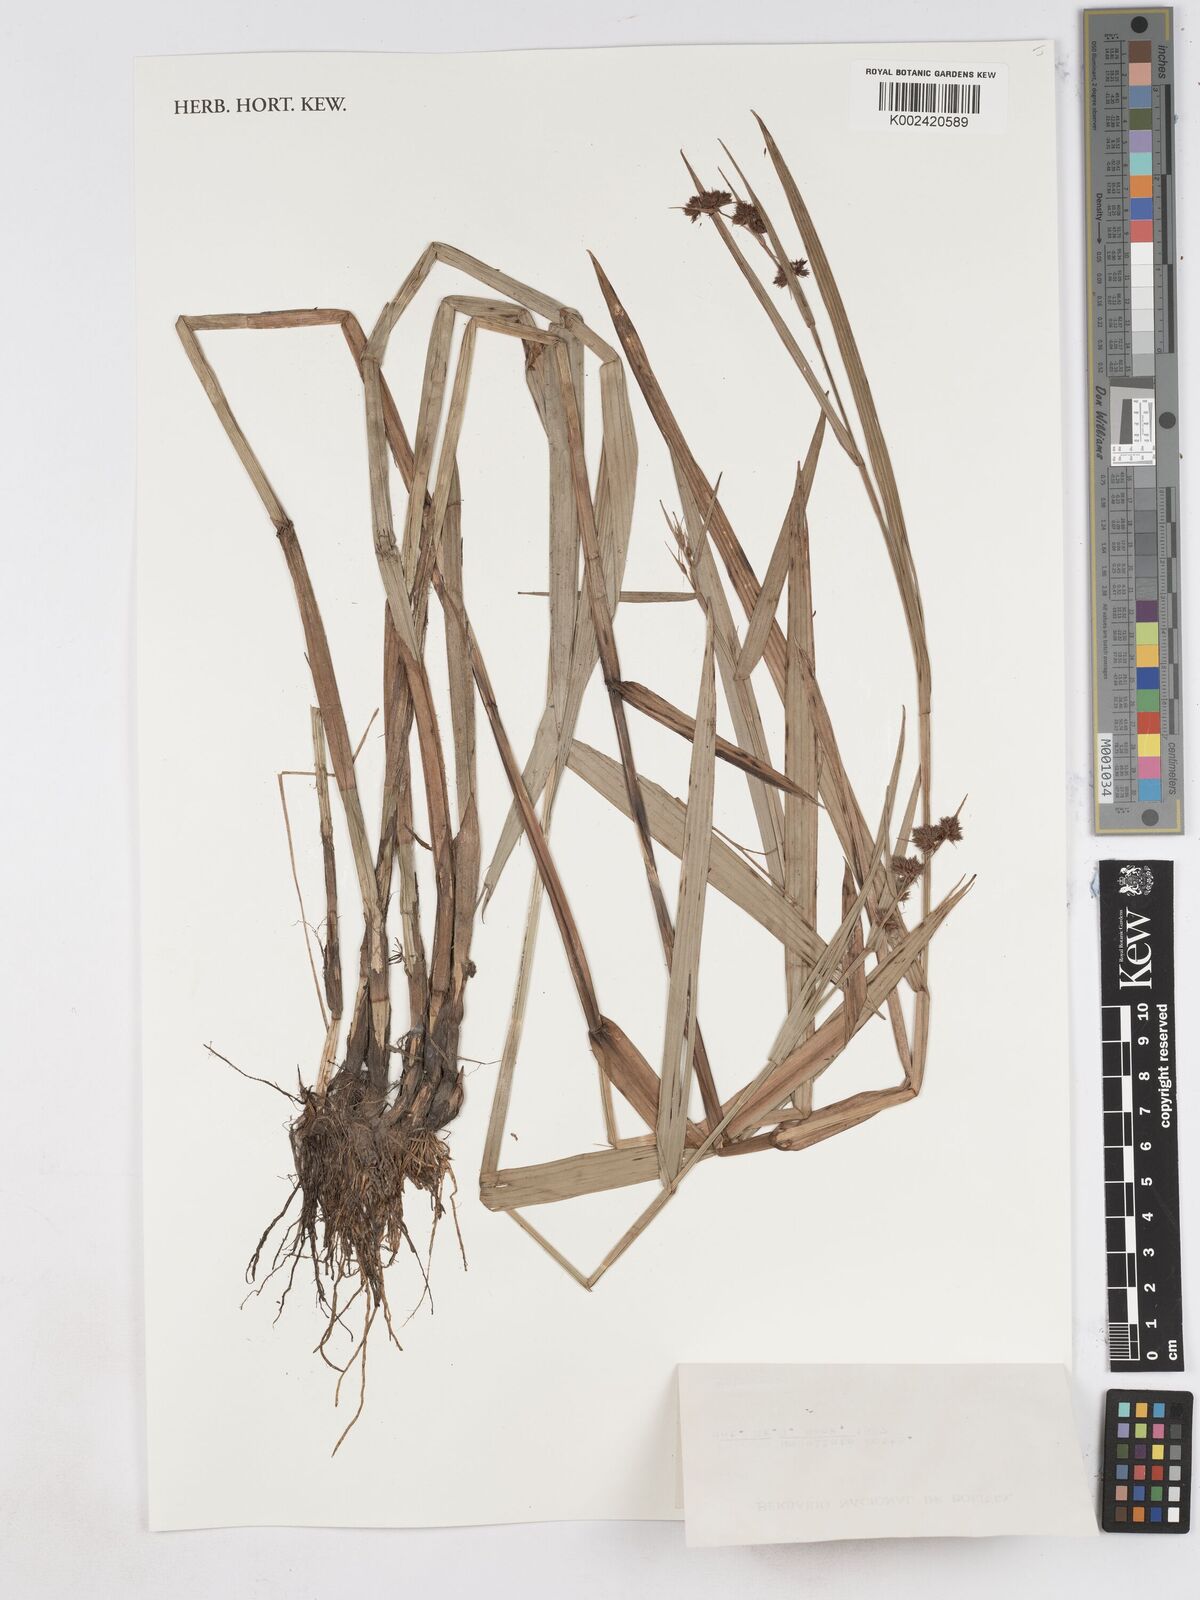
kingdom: Plantae
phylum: Tracheophyta
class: Liliopsida
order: Poales
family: Cyperaceae
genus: Fuirena
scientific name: Fuirena umbellata
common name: Yefen
